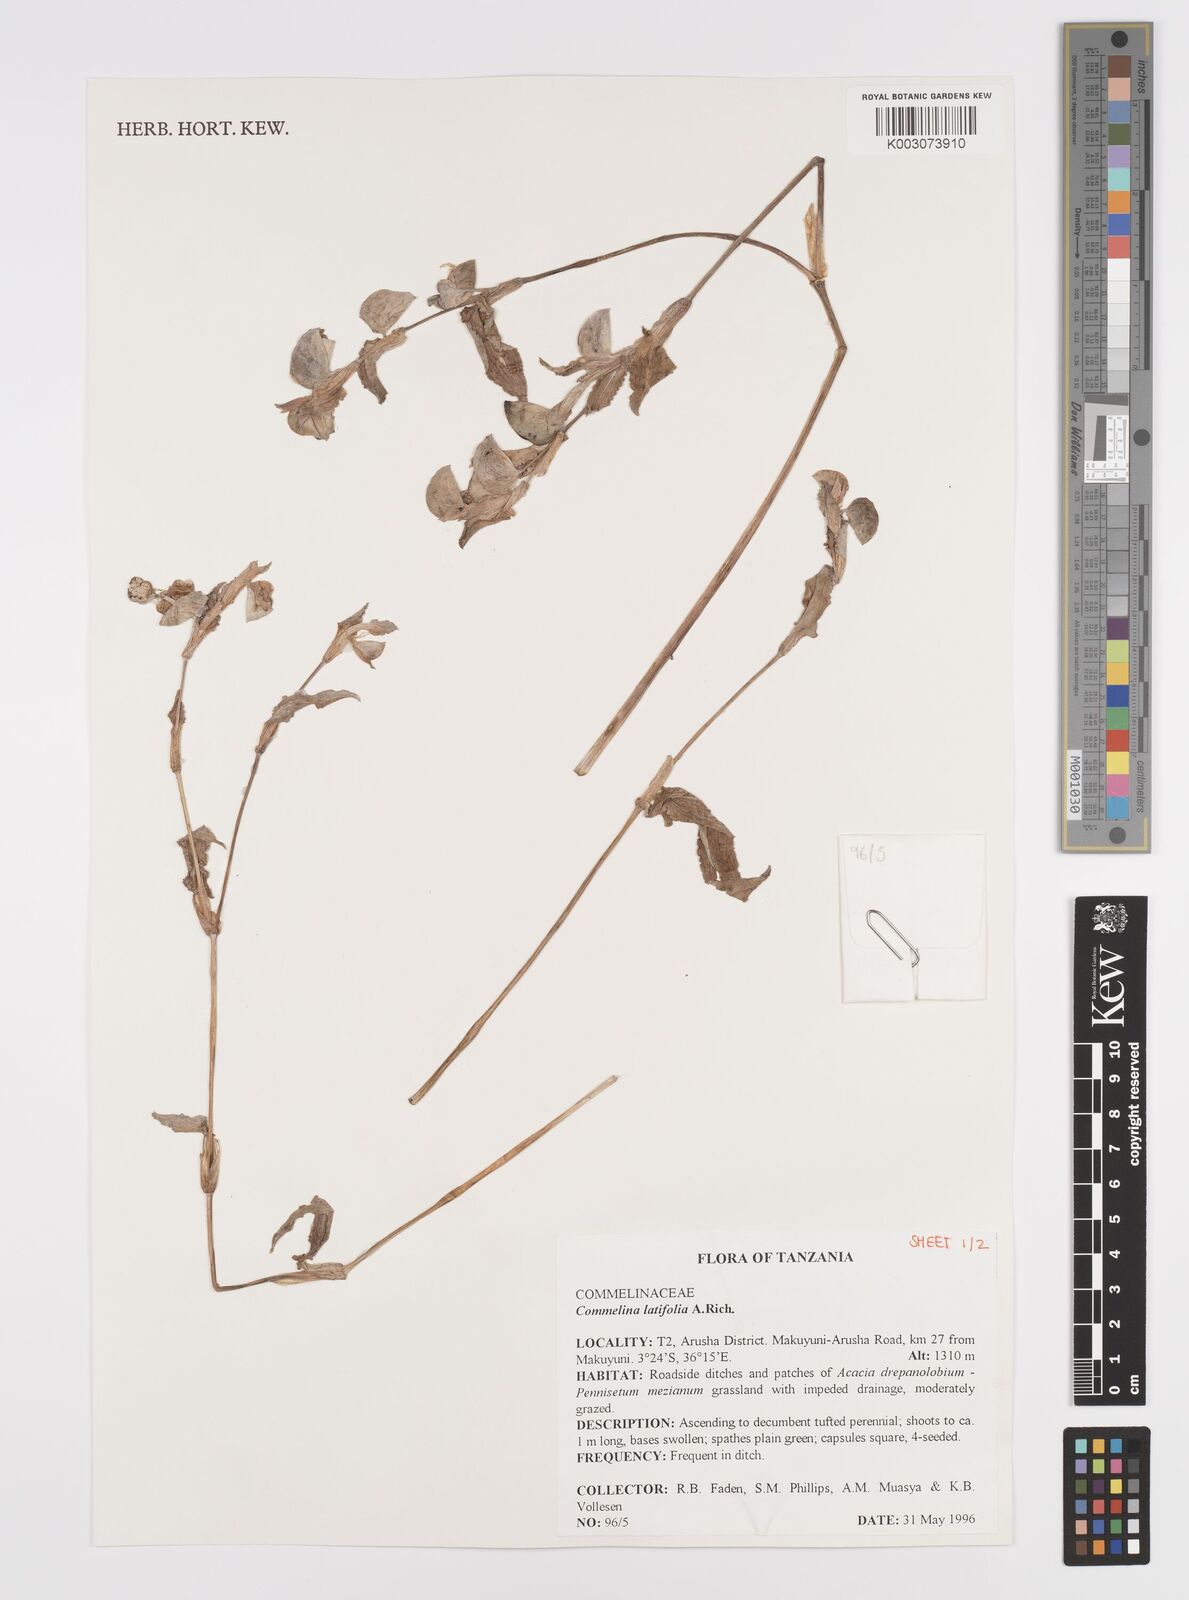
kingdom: Plantae
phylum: Tracheophyta
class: Liliopsida
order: Commelinales
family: Commelinaceae
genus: Commelina
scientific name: Commelina latifolia
